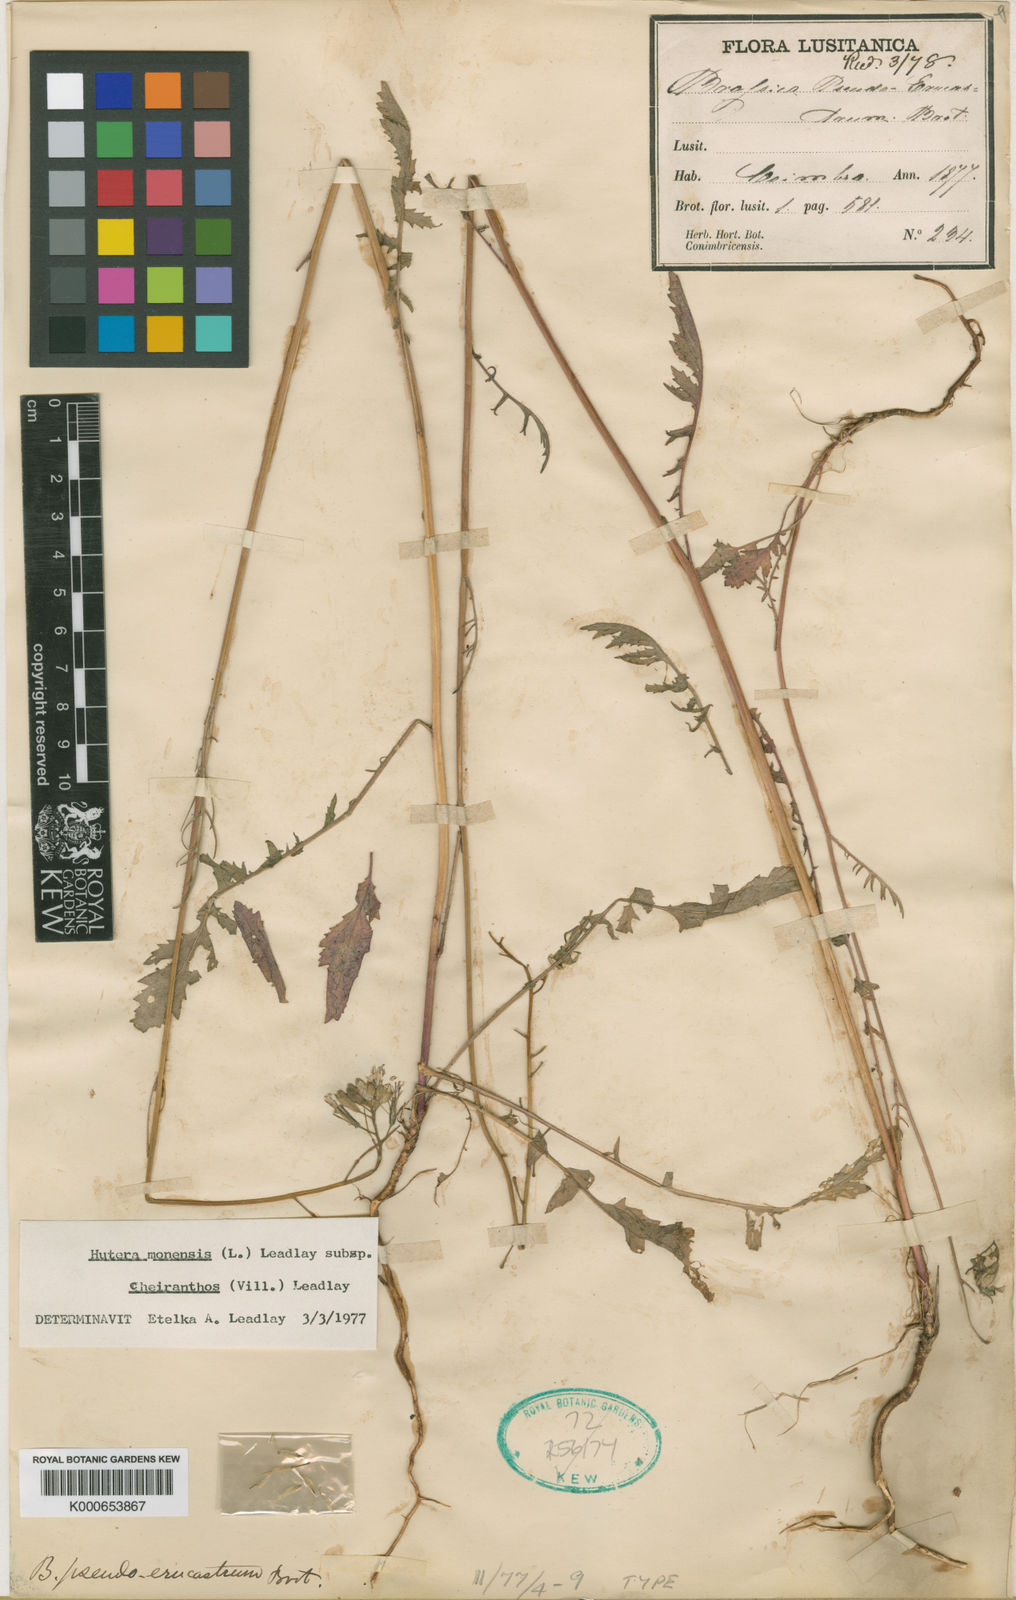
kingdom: Plantae
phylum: Tracheophyta
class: Magnoliopsida
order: Brassicales
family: Brassicaceae
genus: Coincya
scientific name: Coincya monensis
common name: Star-mustard
